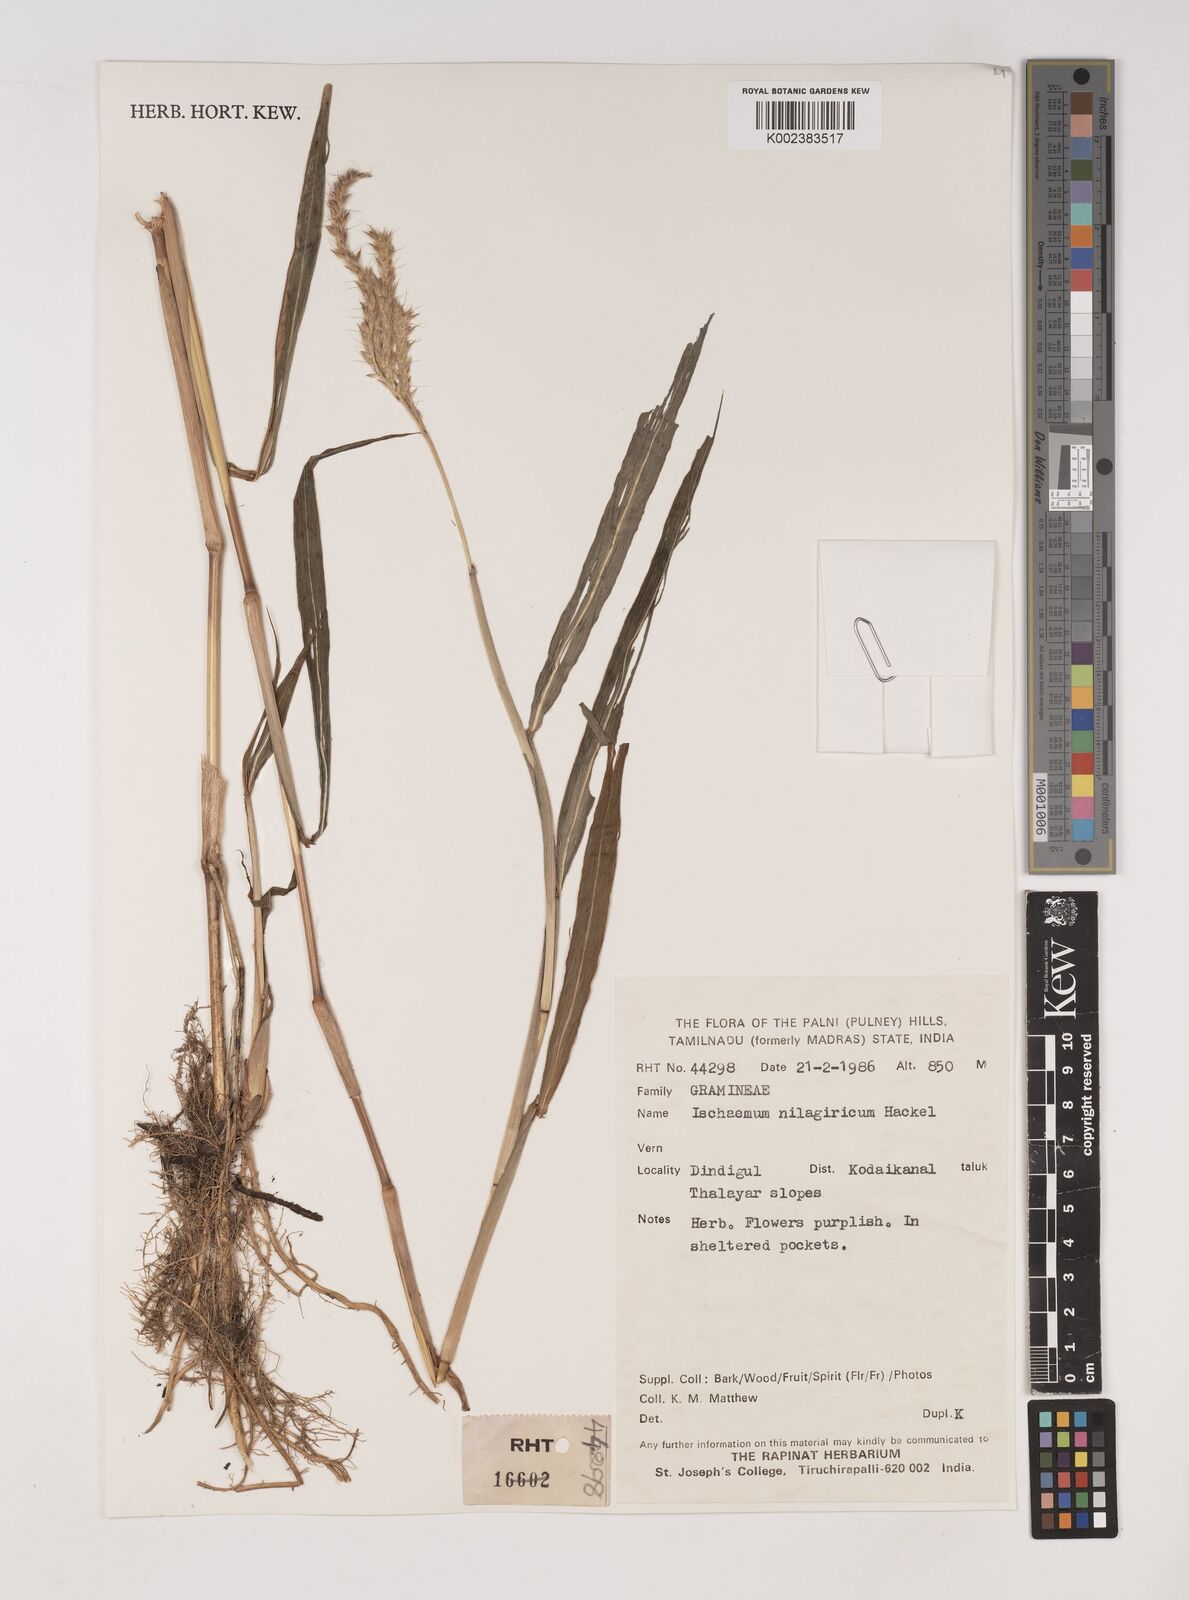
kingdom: Plantae
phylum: Tracheophyta
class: Liliopsida
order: Poales
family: Poaceae
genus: Ischaemum
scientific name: Ischaemum
